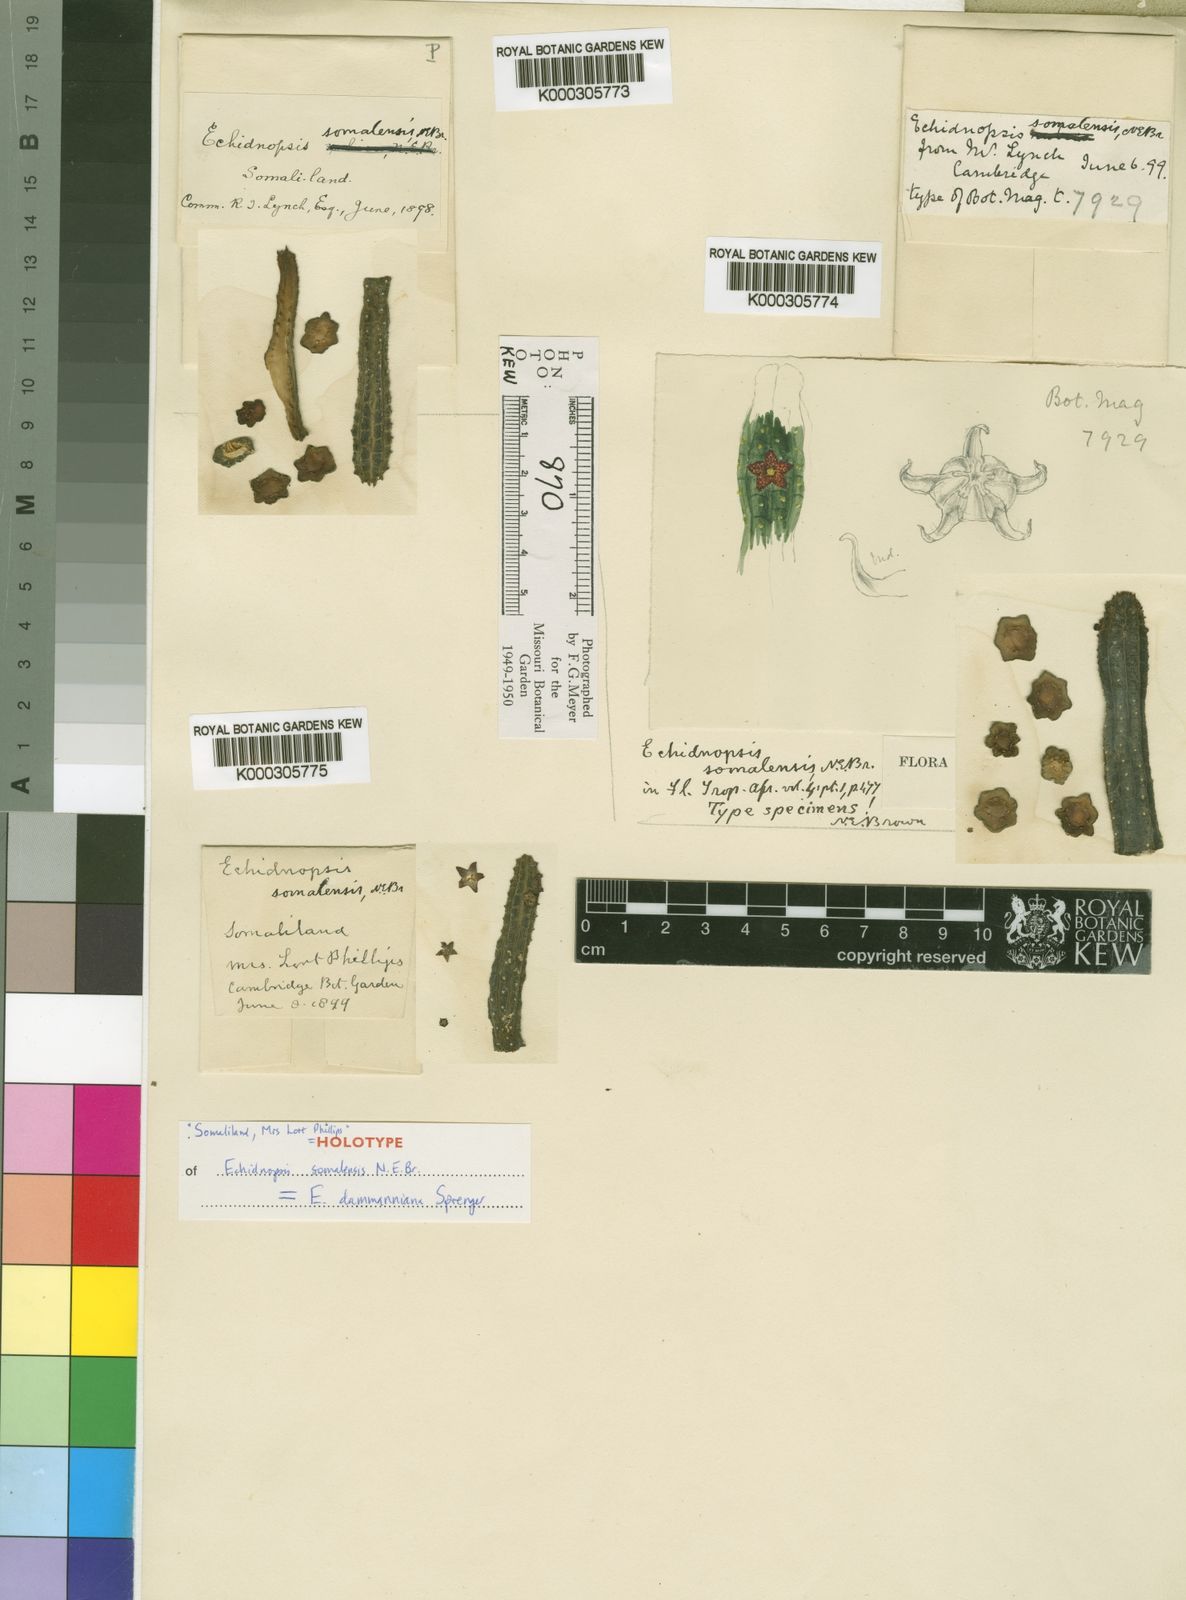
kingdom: Plantae
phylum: Tracheophyta
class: Magnoliopsida
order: Gentianales
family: Apocynaceae
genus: Ceropegia
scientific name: Ceropegia dammanniana
